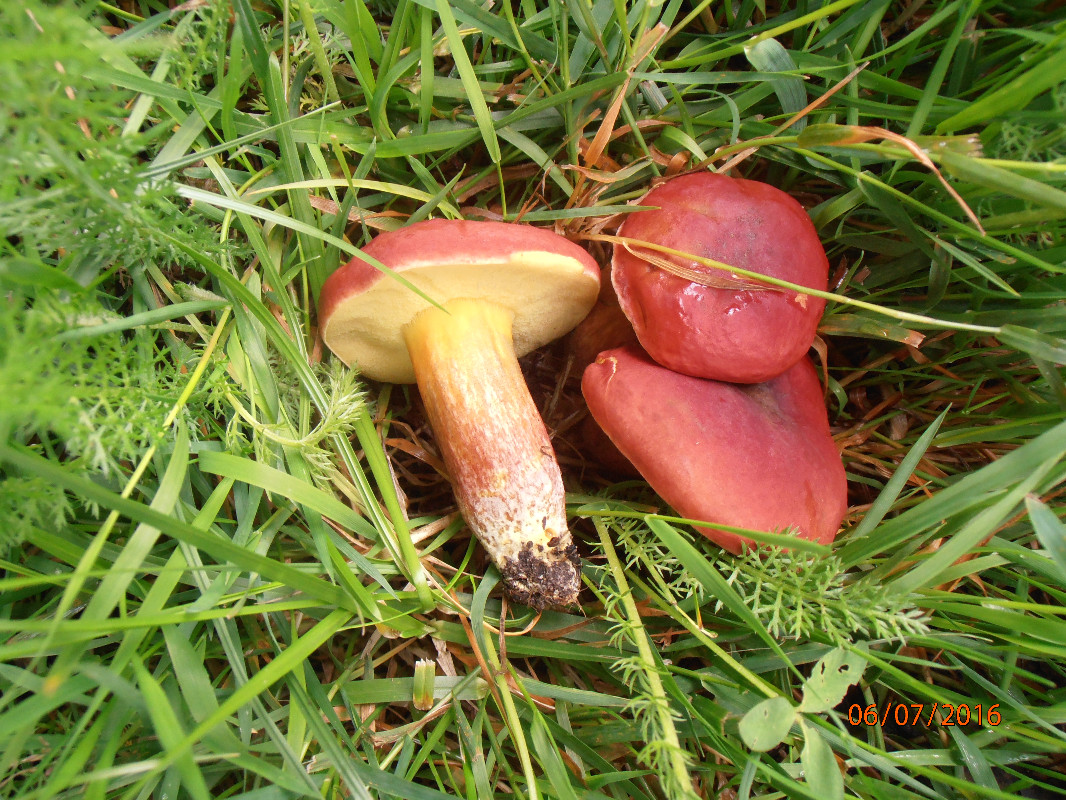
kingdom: Fungi
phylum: Basidiomycota
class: Agaricomycetes
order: Boletales
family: Boletaceae
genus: Hortiboletus
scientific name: Hortiboletus rubellus
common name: blodrød rørhat
